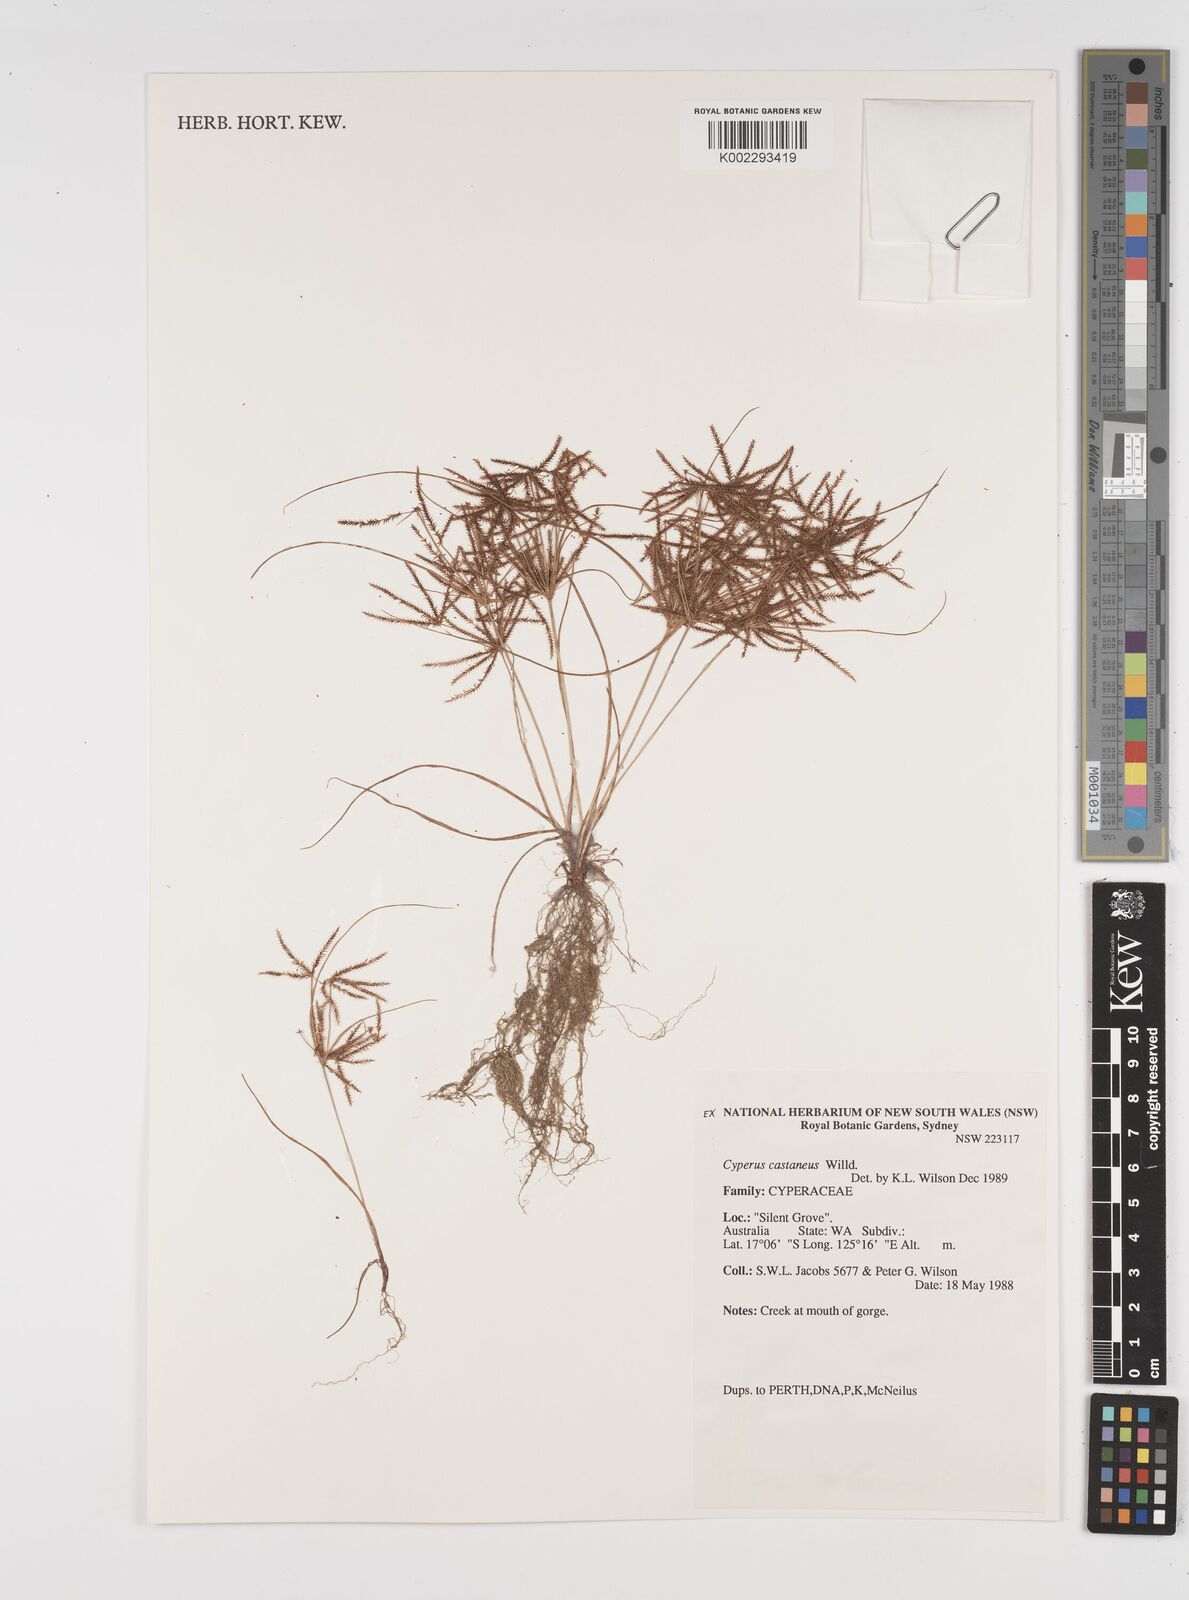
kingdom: Plantae
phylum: Tracheophyta
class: Liliopsida
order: Poales
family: Cyperaceae
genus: Cyperus
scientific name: Cyperus castaneus
